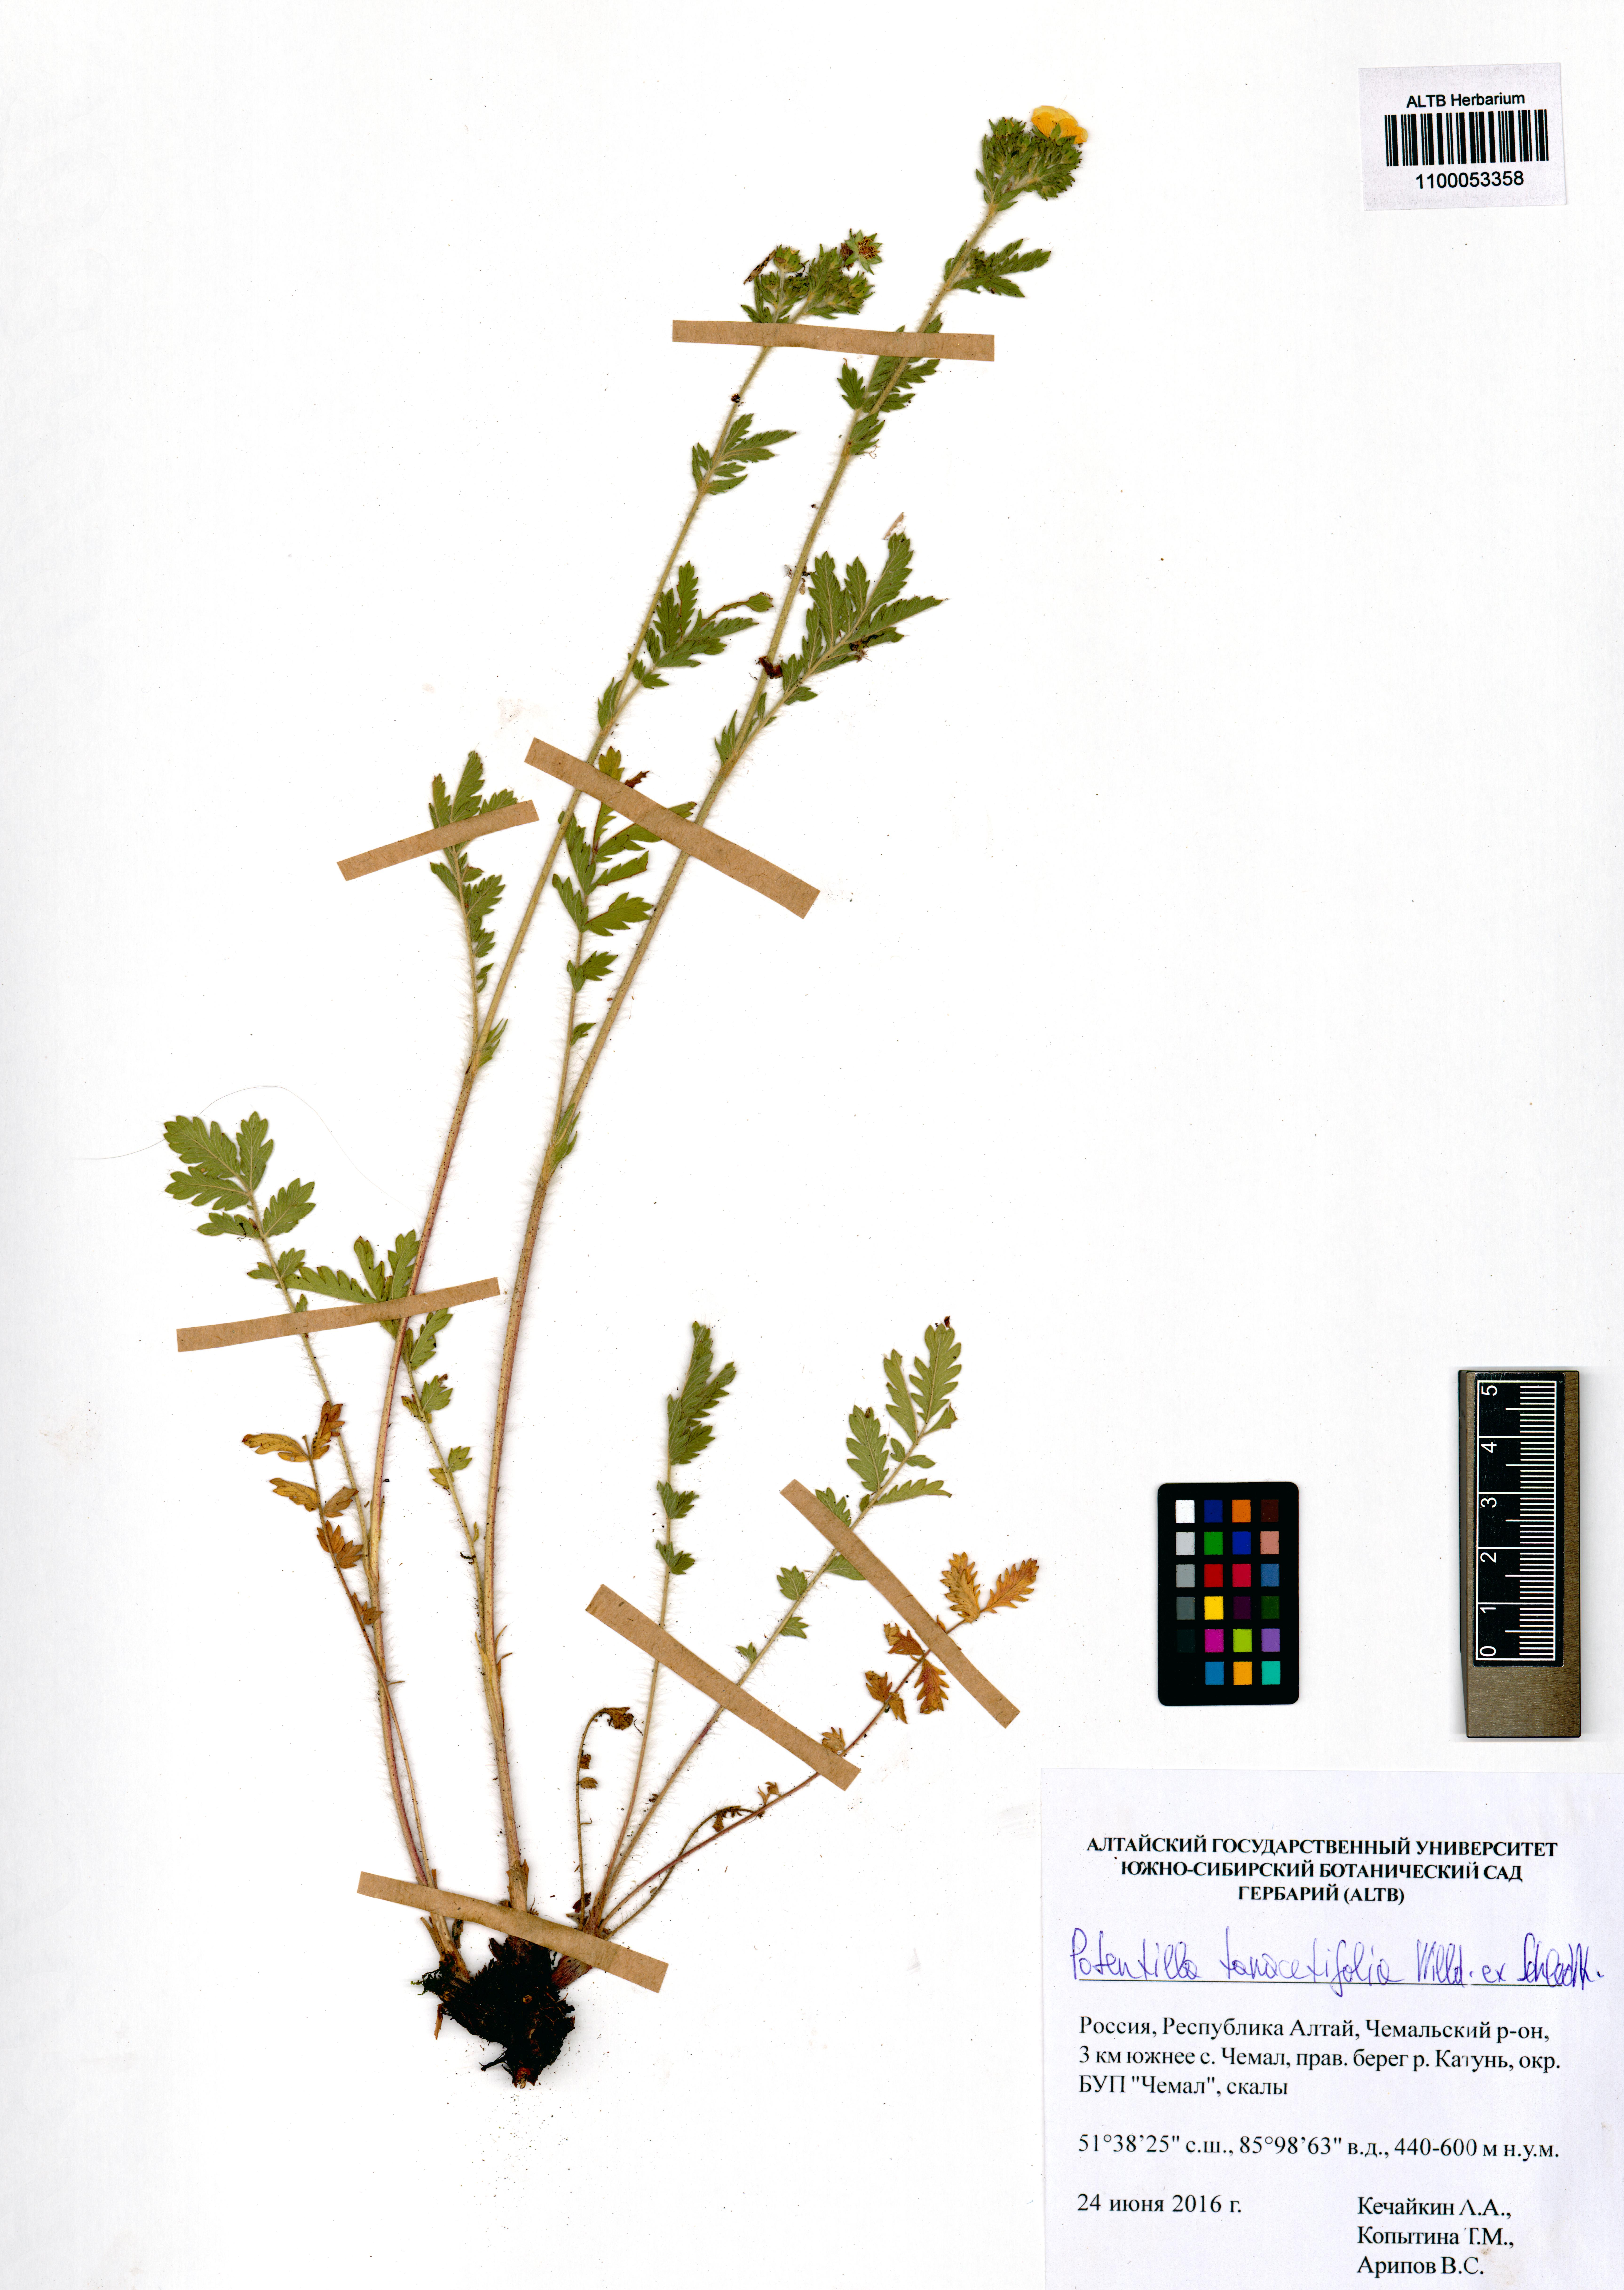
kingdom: Plantae
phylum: Tracheophyta
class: Magnoliopsida
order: Rosales
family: Rosaceae
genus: Potentilla
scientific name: Potentilla tanacetifolia
